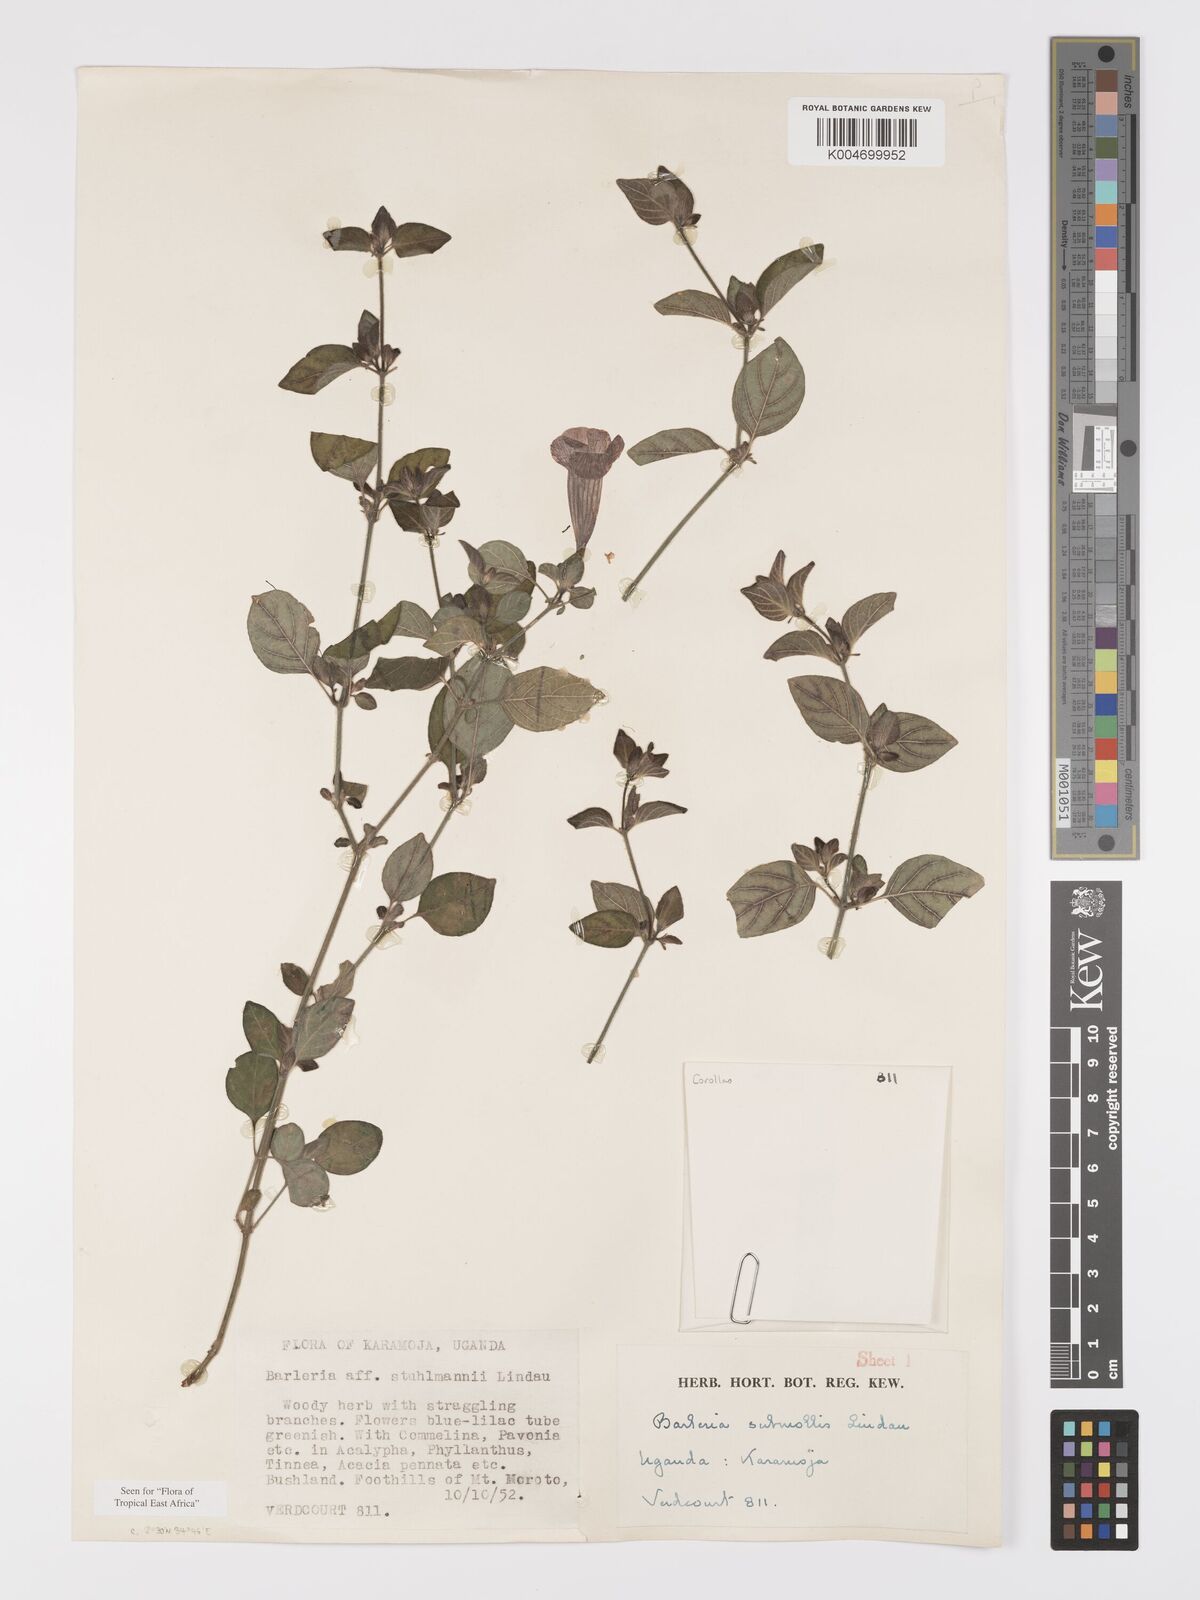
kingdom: Plantae
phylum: Tracheophyta
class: Magnoliopsida
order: Lamiales
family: Acanthaceae
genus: Barleria
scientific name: Barleria submollis
